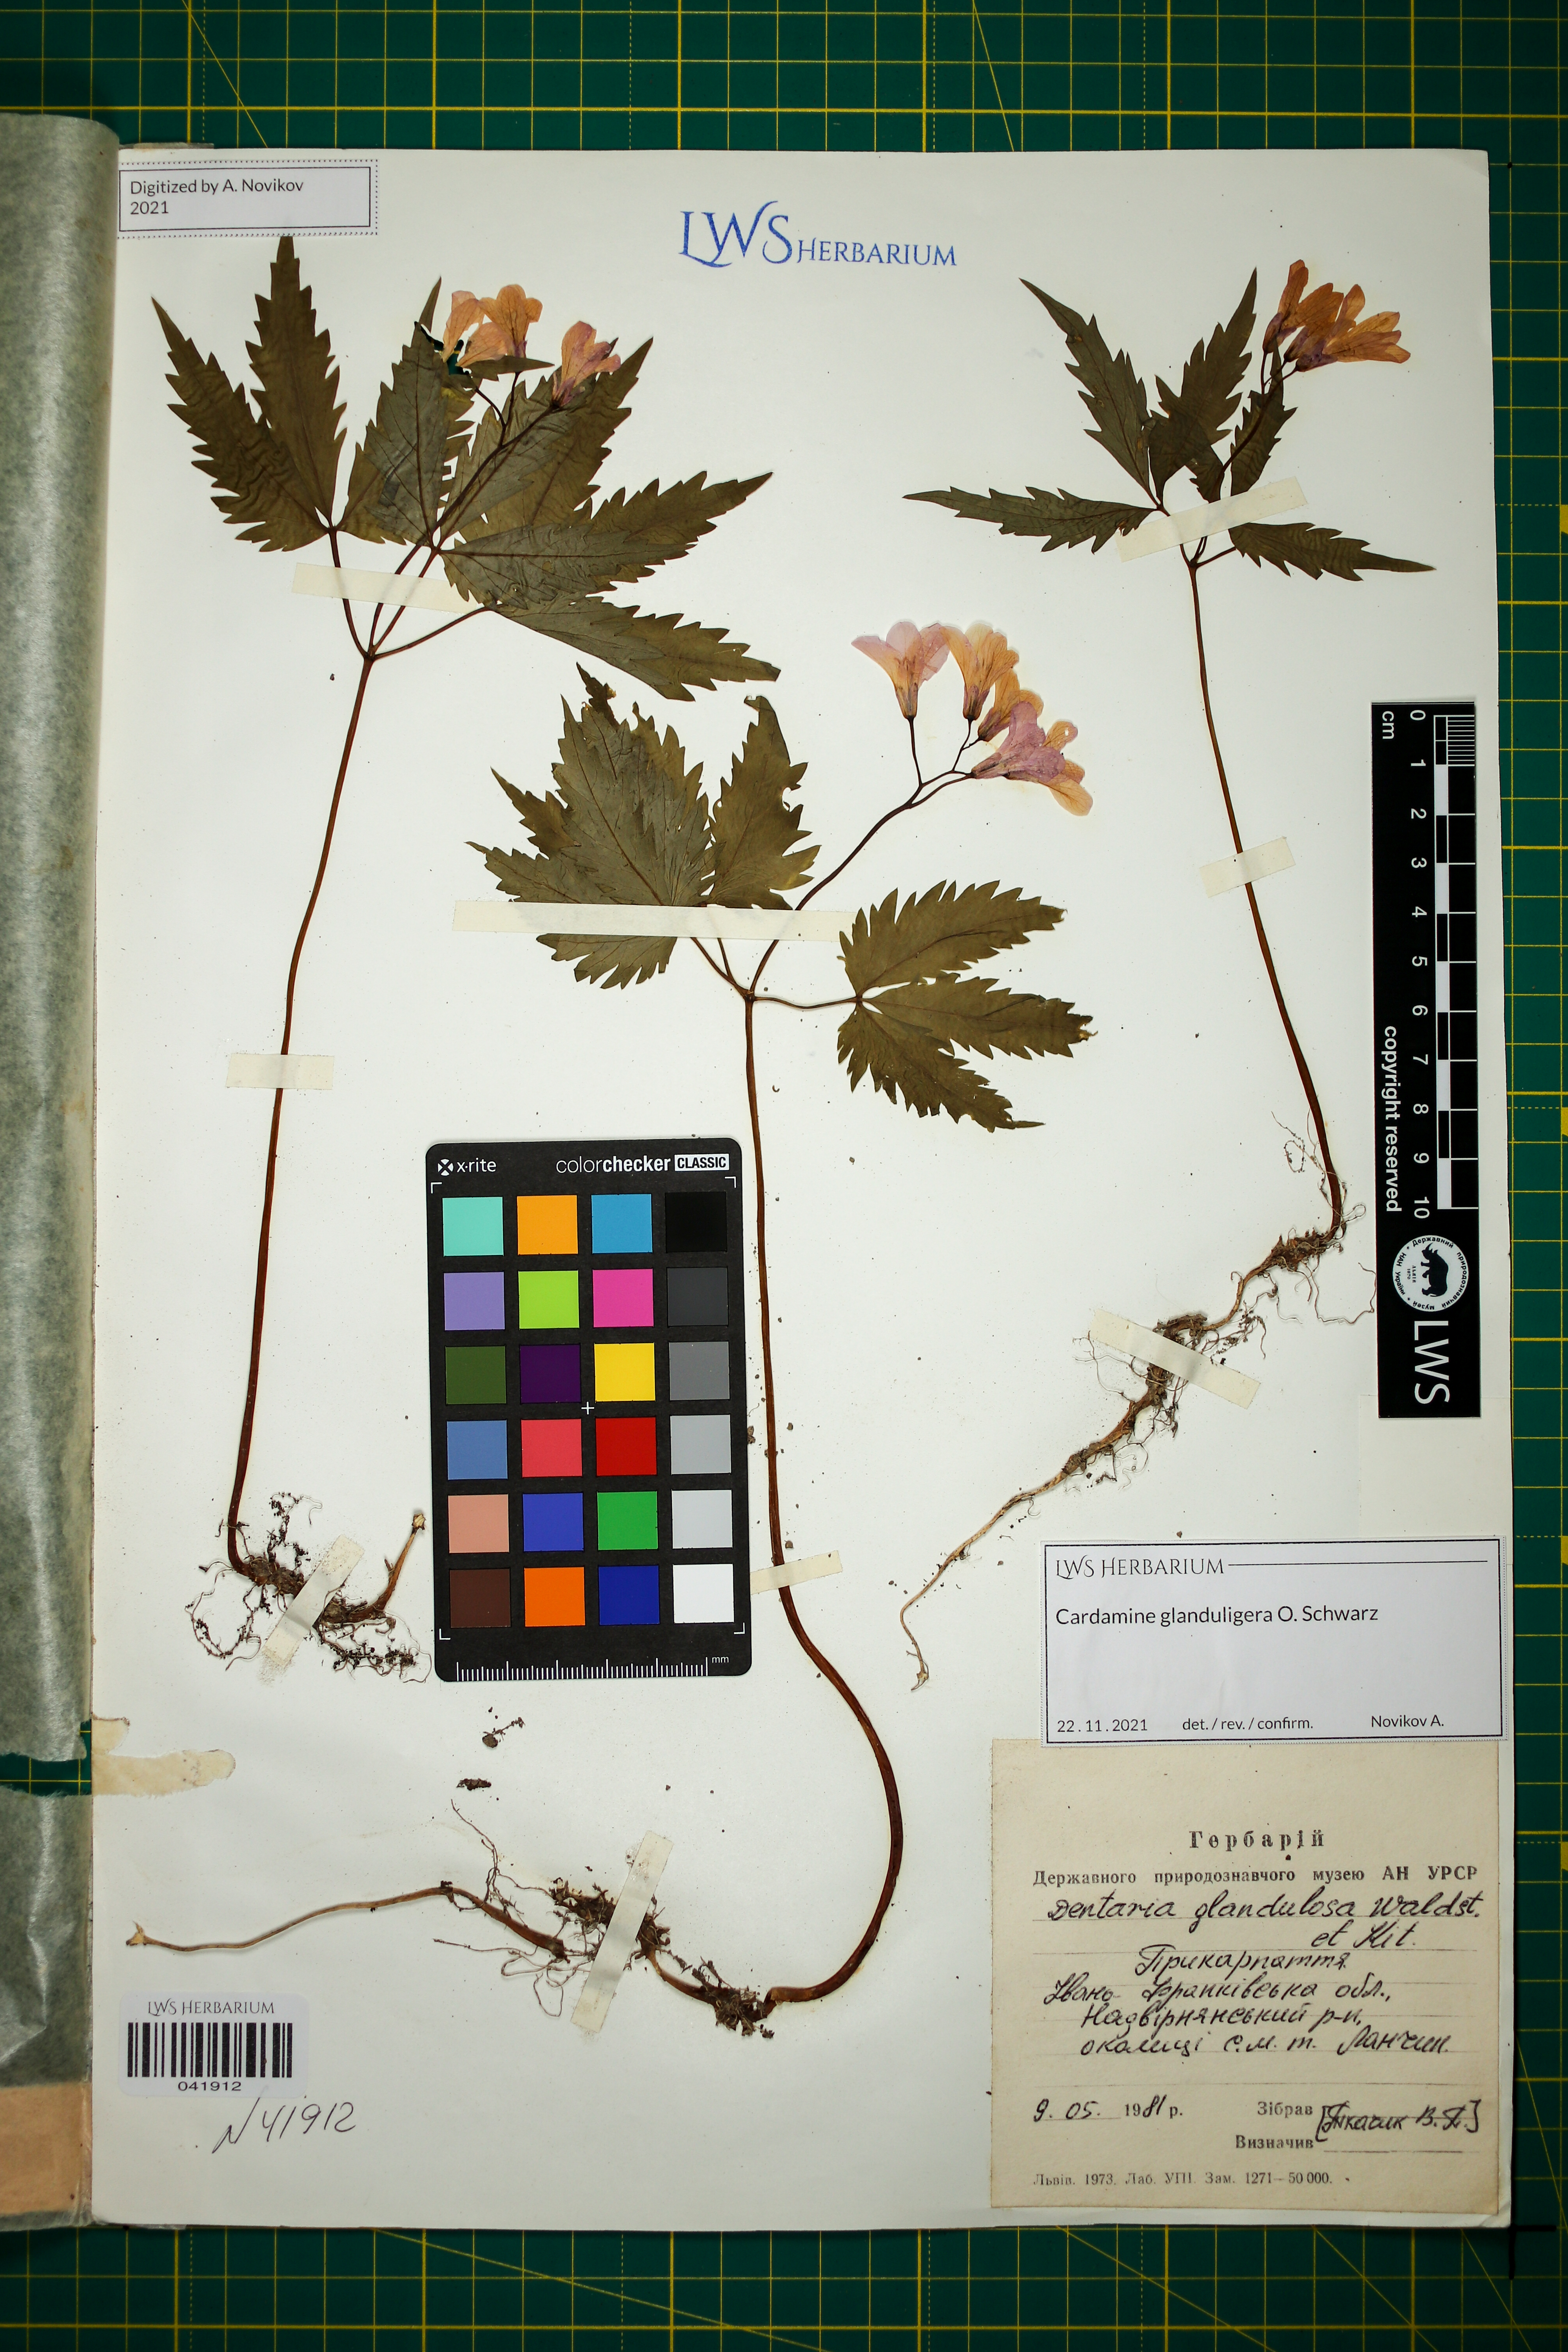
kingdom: Plantae
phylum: Tracheophyta
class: Magnoliopsida
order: Brassicales
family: Brassicaceae
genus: Cardamine
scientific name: Cardamine glanduligera
